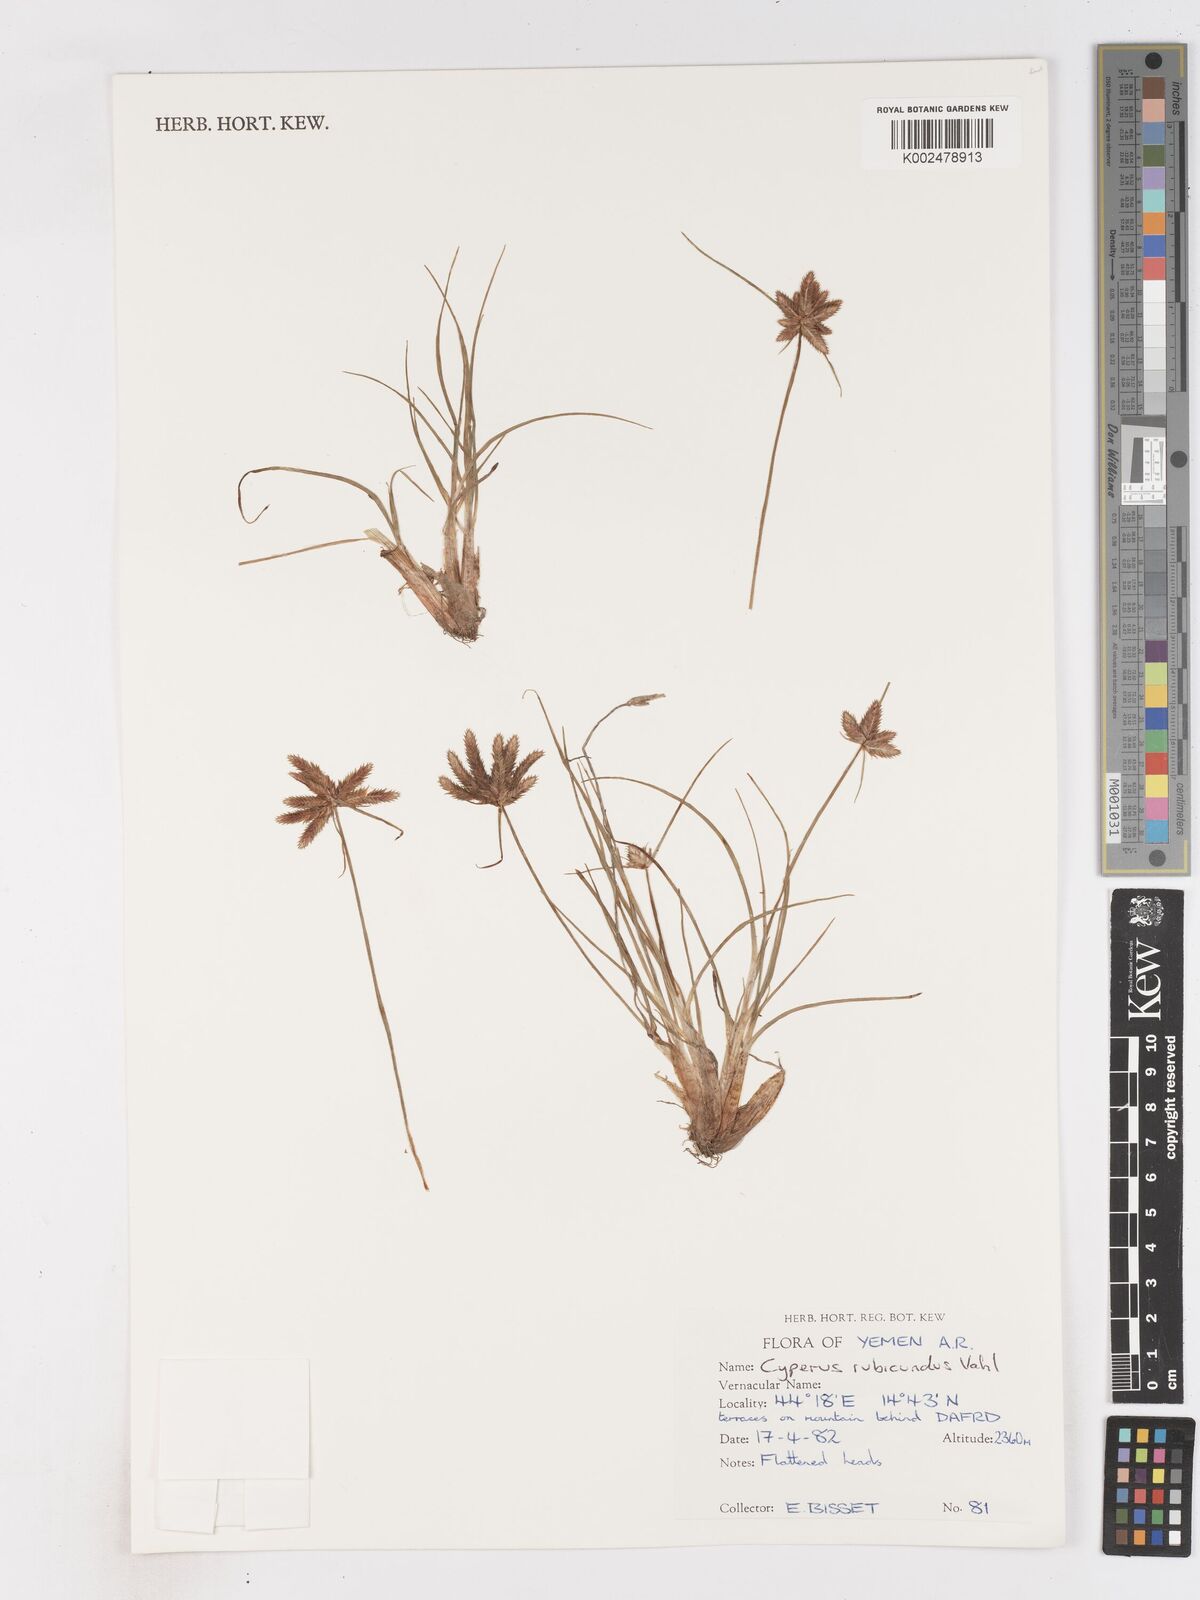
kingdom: Plantae
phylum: Tracheophyta
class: Liliopsida
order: Poales
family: Cyperaceae
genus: Cyperus
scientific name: Cyperus rubicundus
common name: Coco-grass
